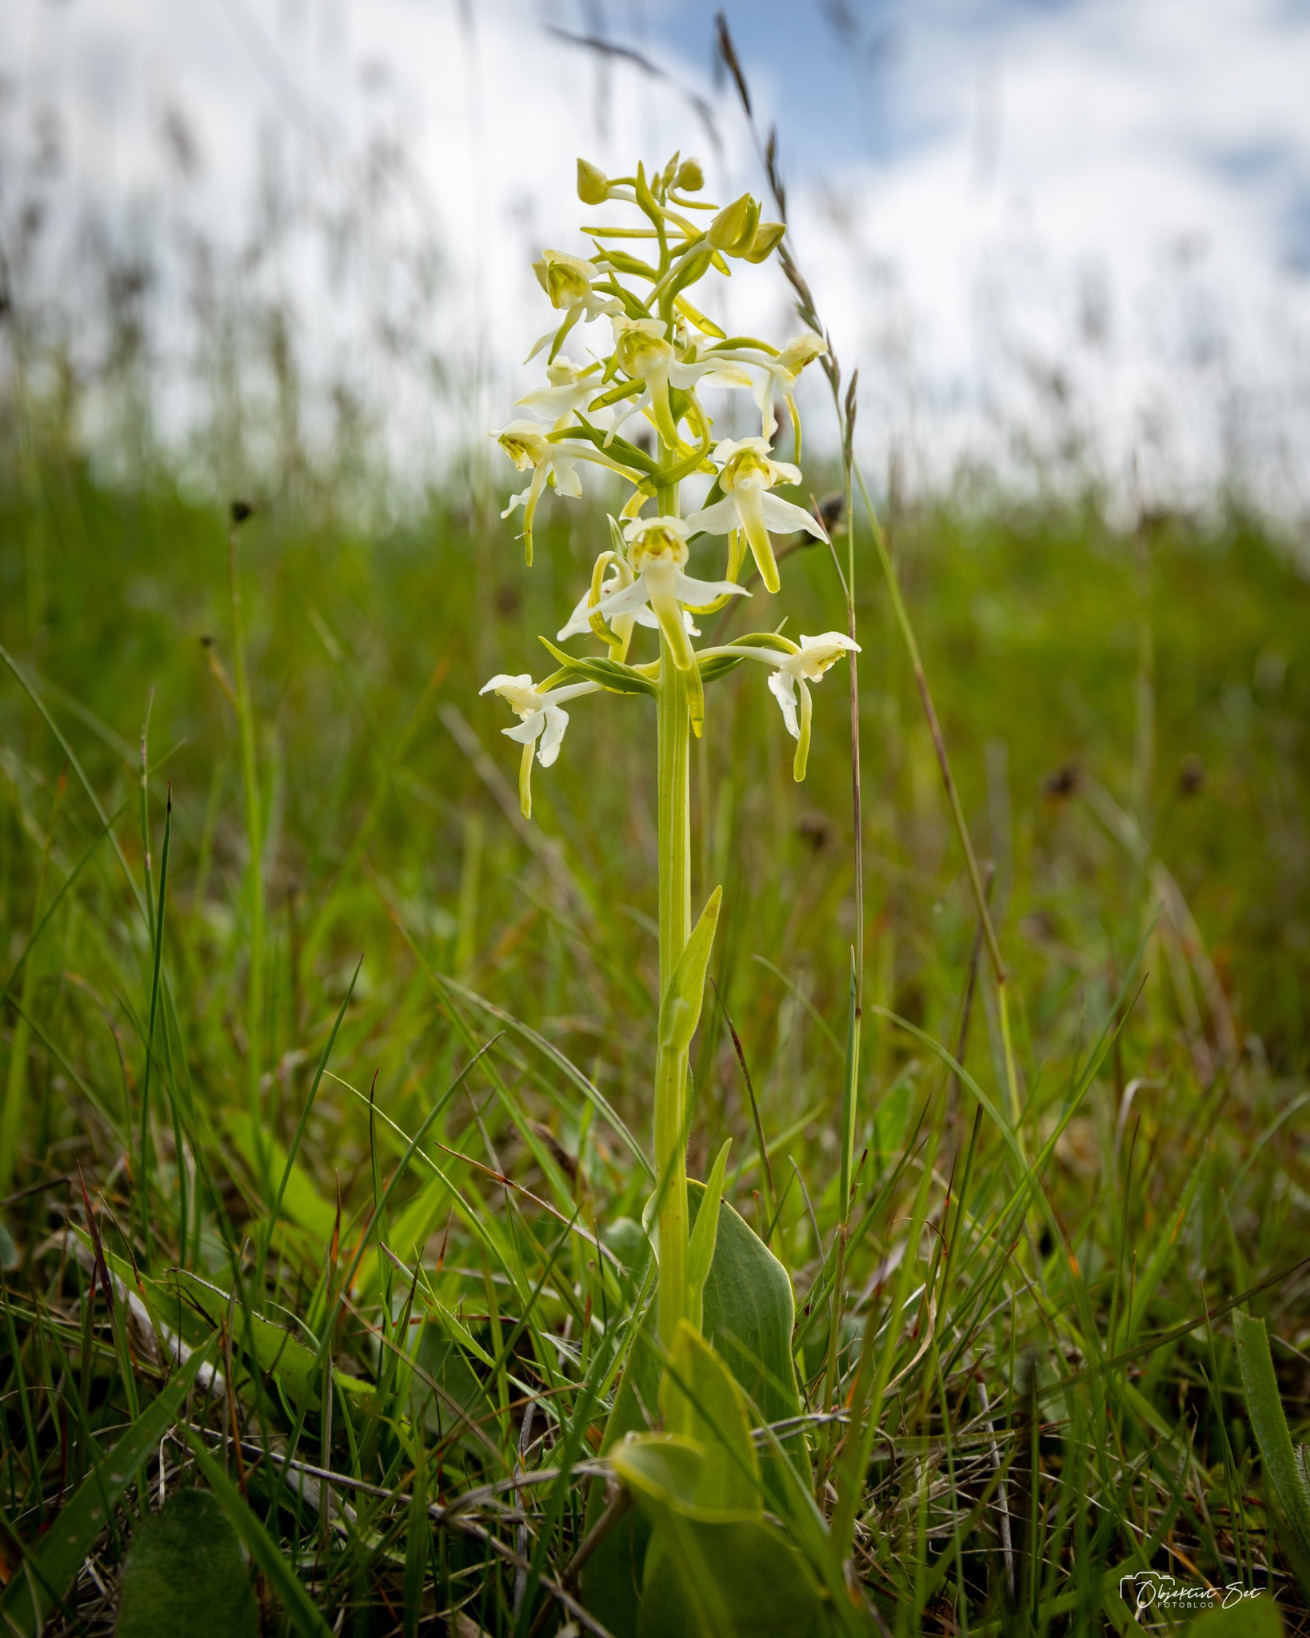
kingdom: Plantae
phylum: Tracheophyta
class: Liliopsida
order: Asparagales
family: Orchidaceae
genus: Platanthera
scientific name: Platanthera chlorantha
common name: Skov-gøgelilje
